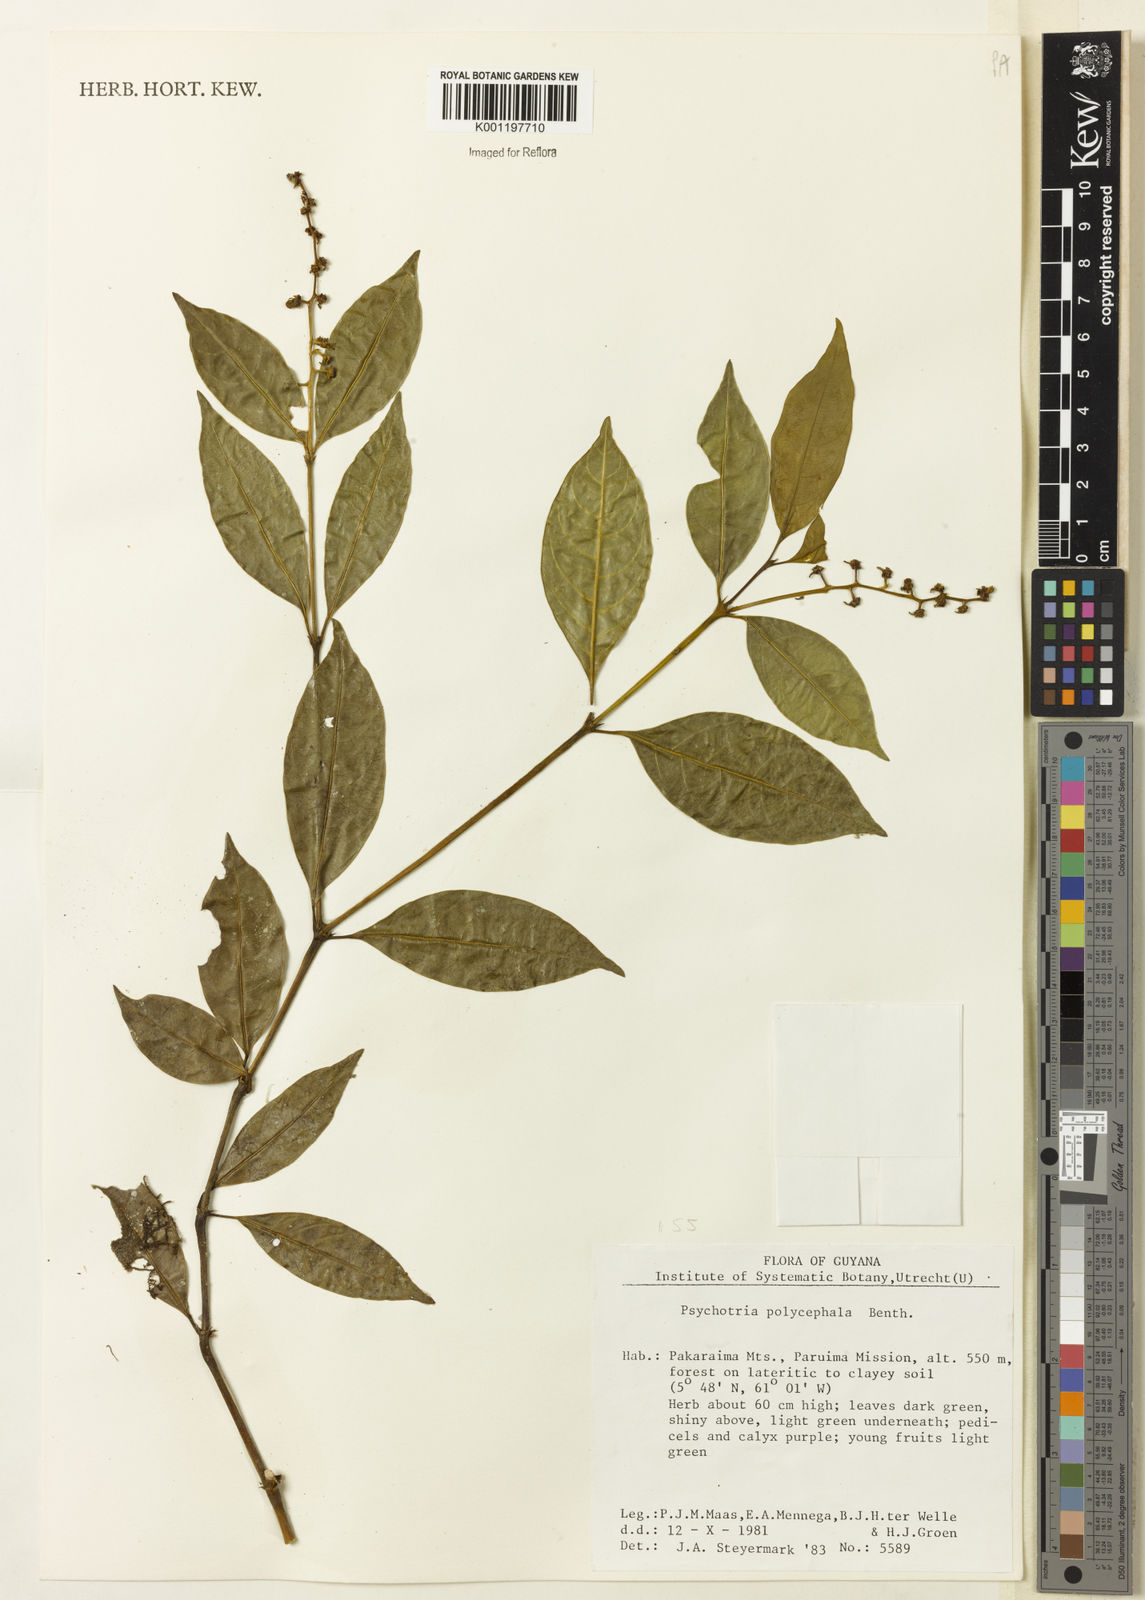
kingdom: Plantae
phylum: Tracheophyta
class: Magnoliopsida
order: Gentianales
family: Rubiaceae
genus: Palicourea
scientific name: Palicourea polycephala
